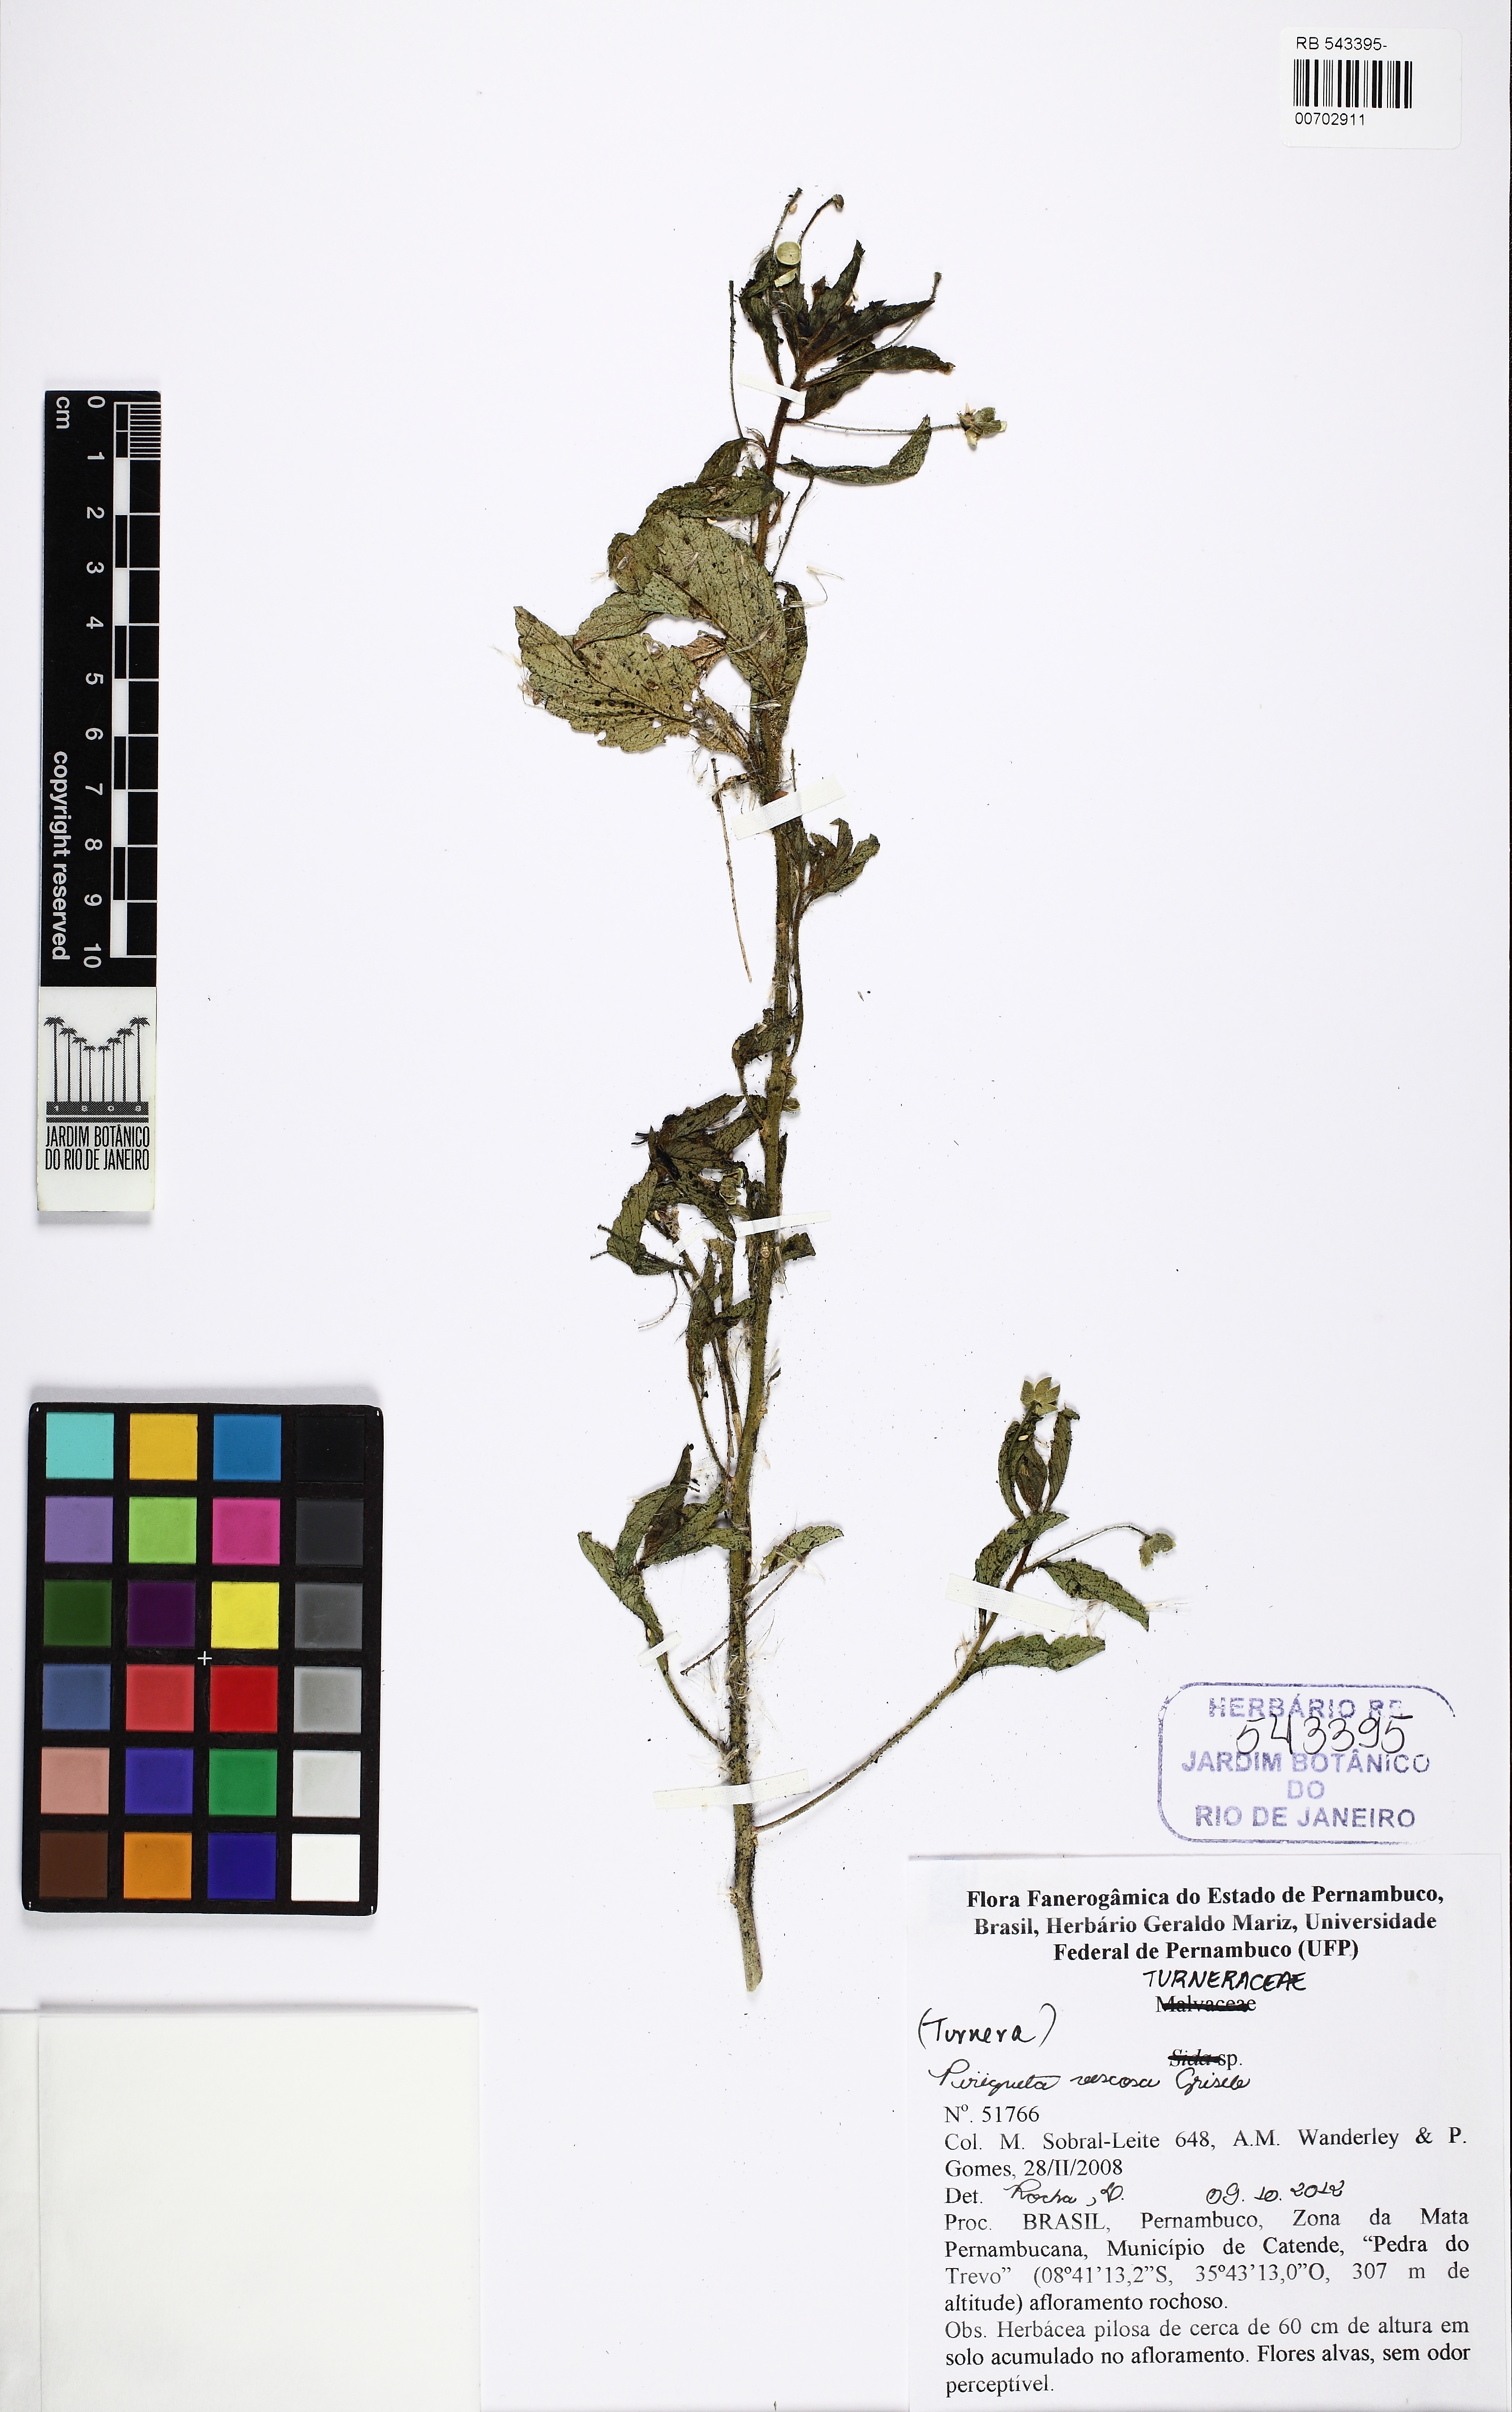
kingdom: Plantae
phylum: Tracheophyta
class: Magnoliopsida
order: Malpighiales
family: Turneraceae
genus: Piriqueta
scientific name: Piriqueta viscosa
